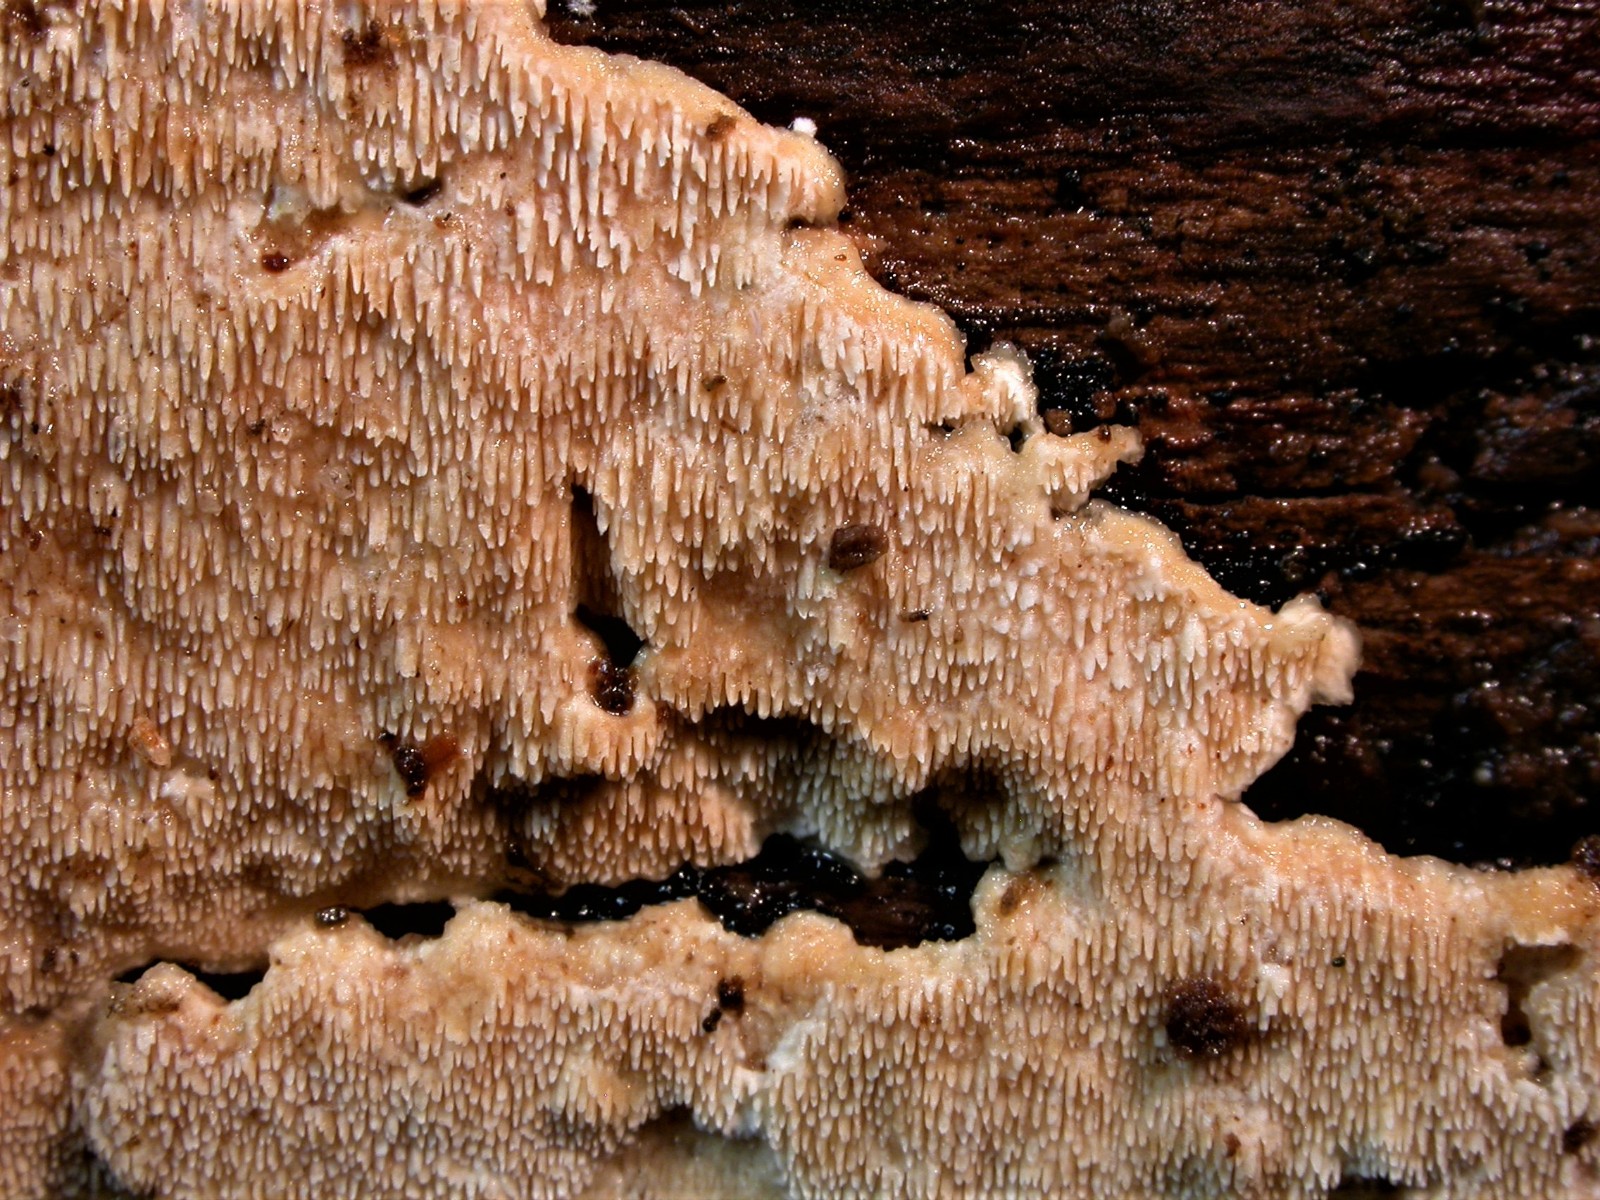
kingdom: Fungi
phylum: Basidiomycota
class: Agaricomycetes
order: Polyporales
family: Steccherinaceae
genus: Steccherinum
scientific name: Steccherinum ochraceum
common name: almindelig skønpig
